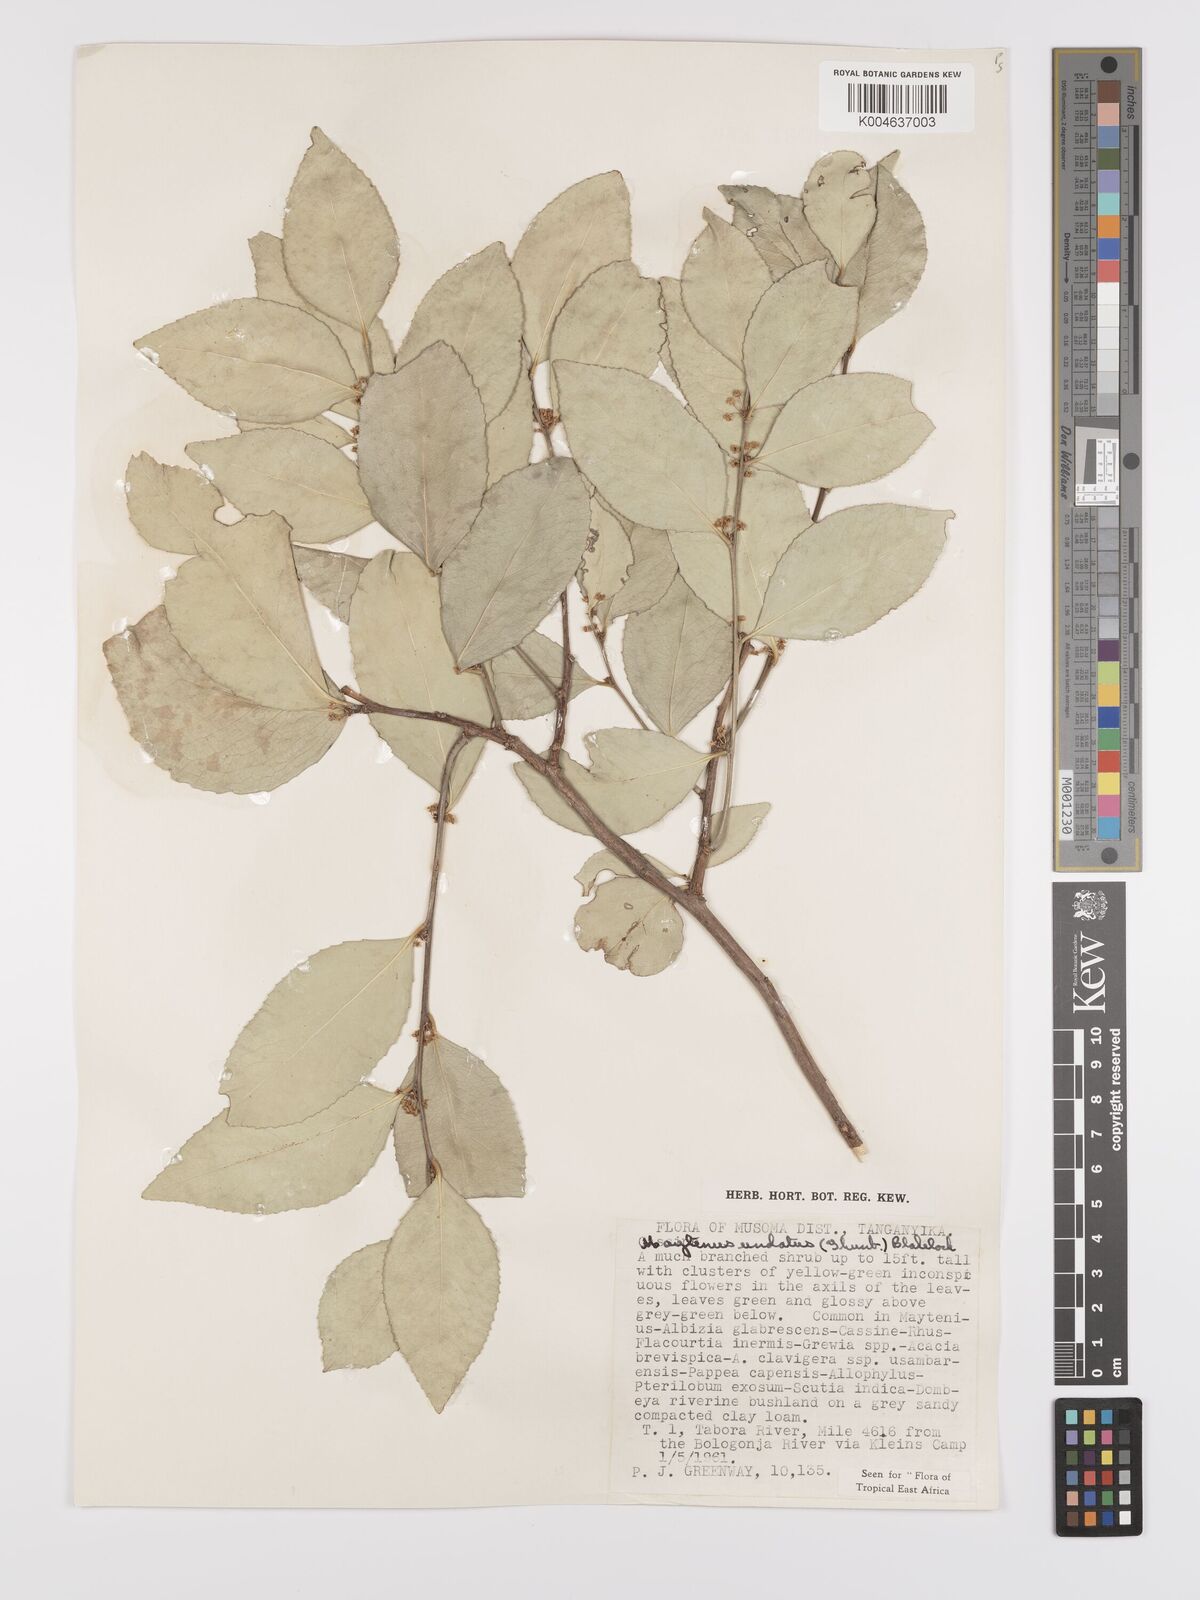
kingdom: Plantae
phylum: Tracheophyta
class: Magnoliopsida
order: Celastrales
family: Celastraceae
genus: Gymnosporia
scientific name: Gymnosporia undata
